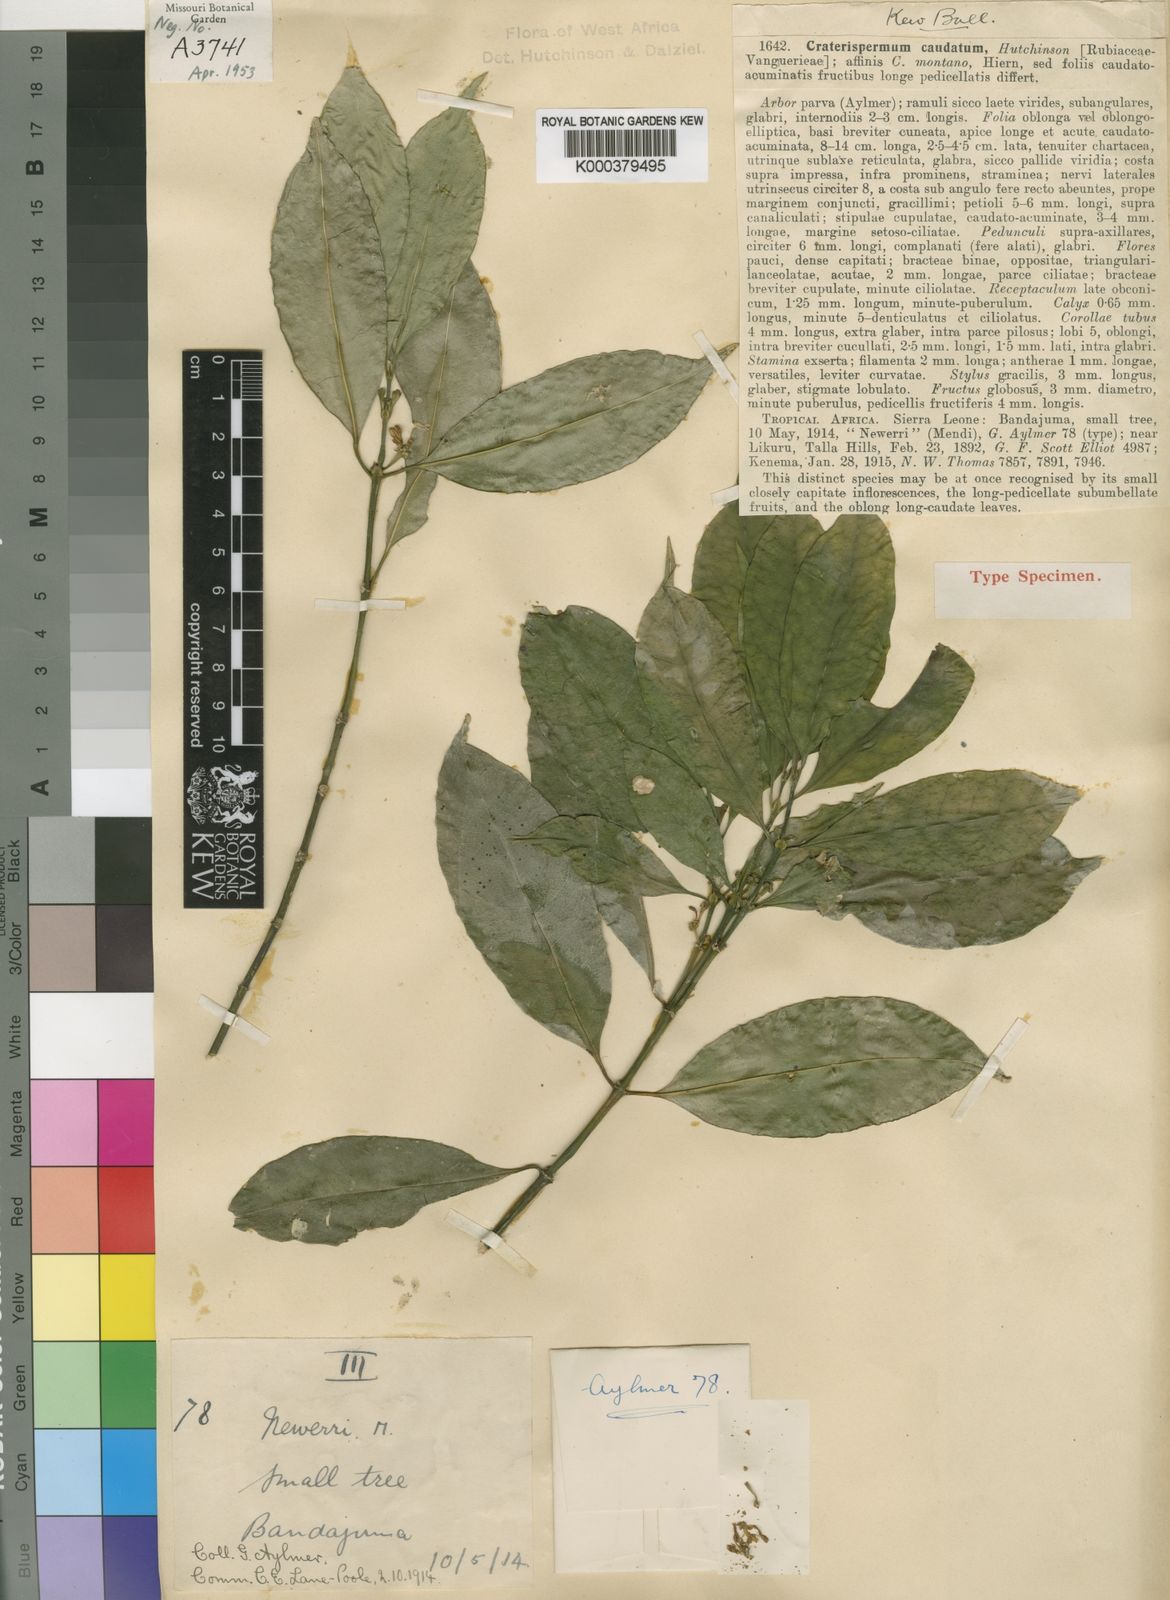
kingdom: Plantae
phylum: Tracheophyta
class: Magnoliopsida
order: Gentianales
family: Rubiaceae
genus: Craterispermum
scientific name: Craterispermum caudatum
